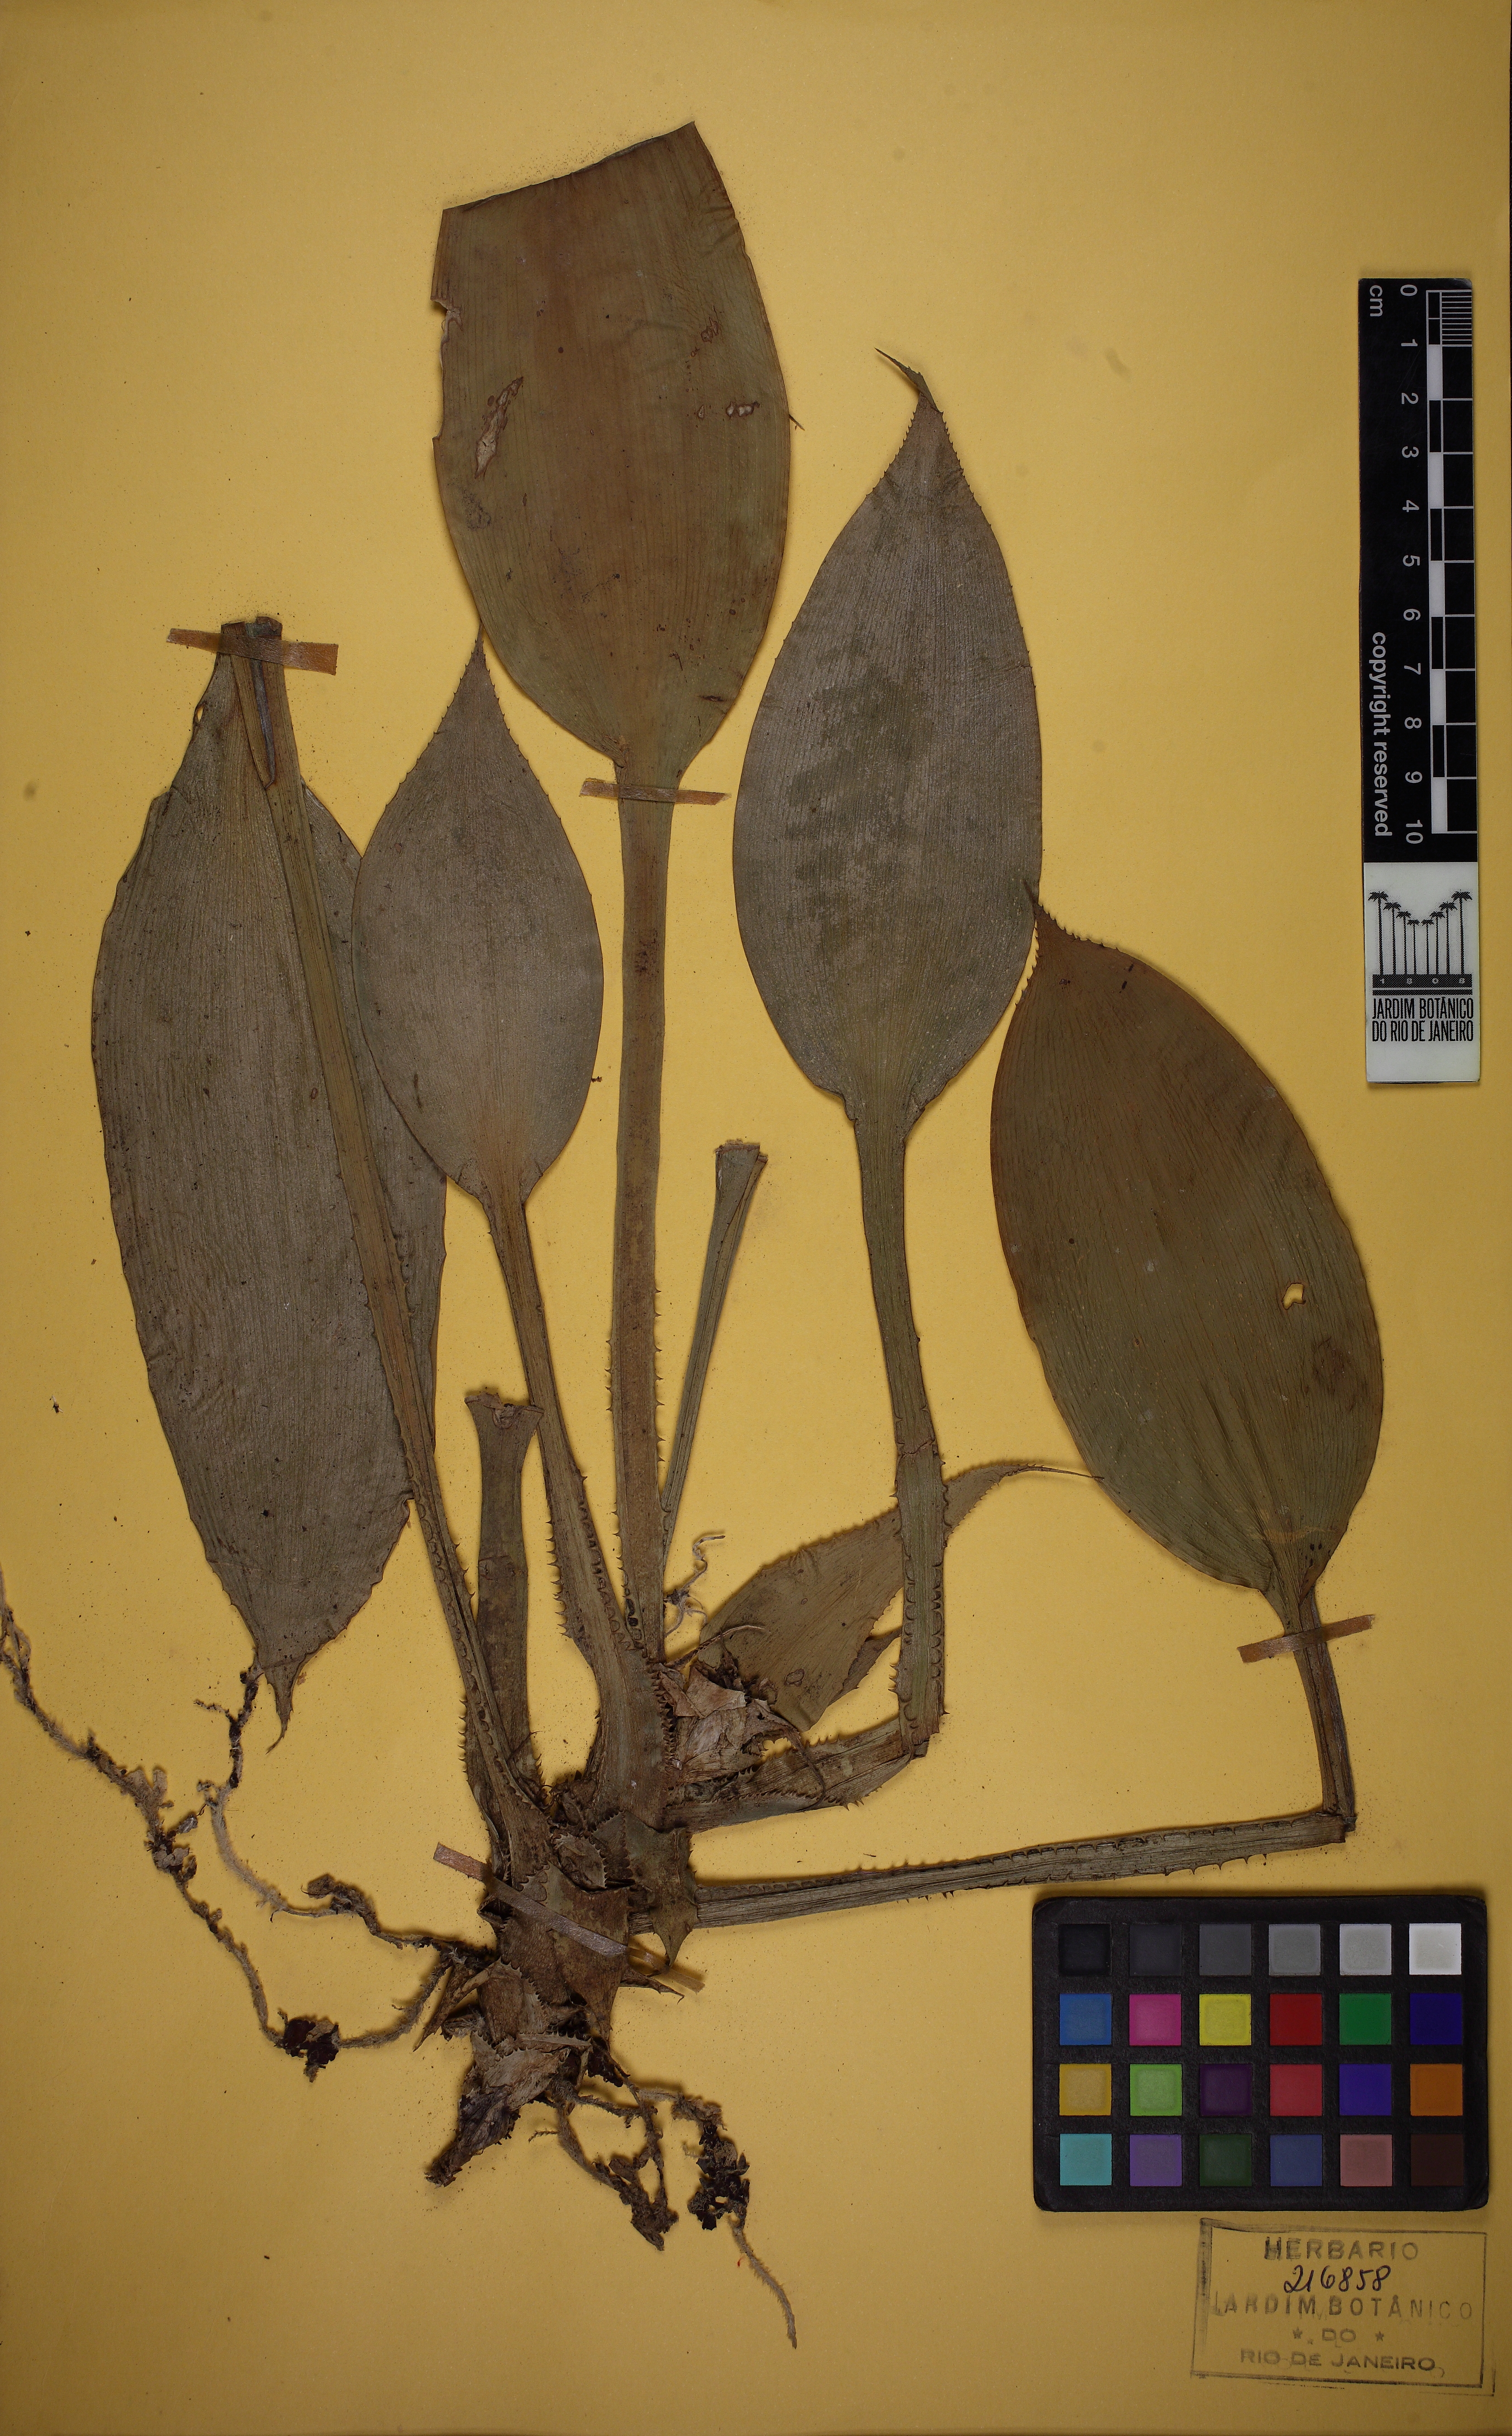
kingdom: Plantae
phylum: Tracheophyta
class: Liliopsida
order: Poales
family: Bromeliaceae
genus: Cryptanthus
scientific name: Cryptanthus beuckeri
